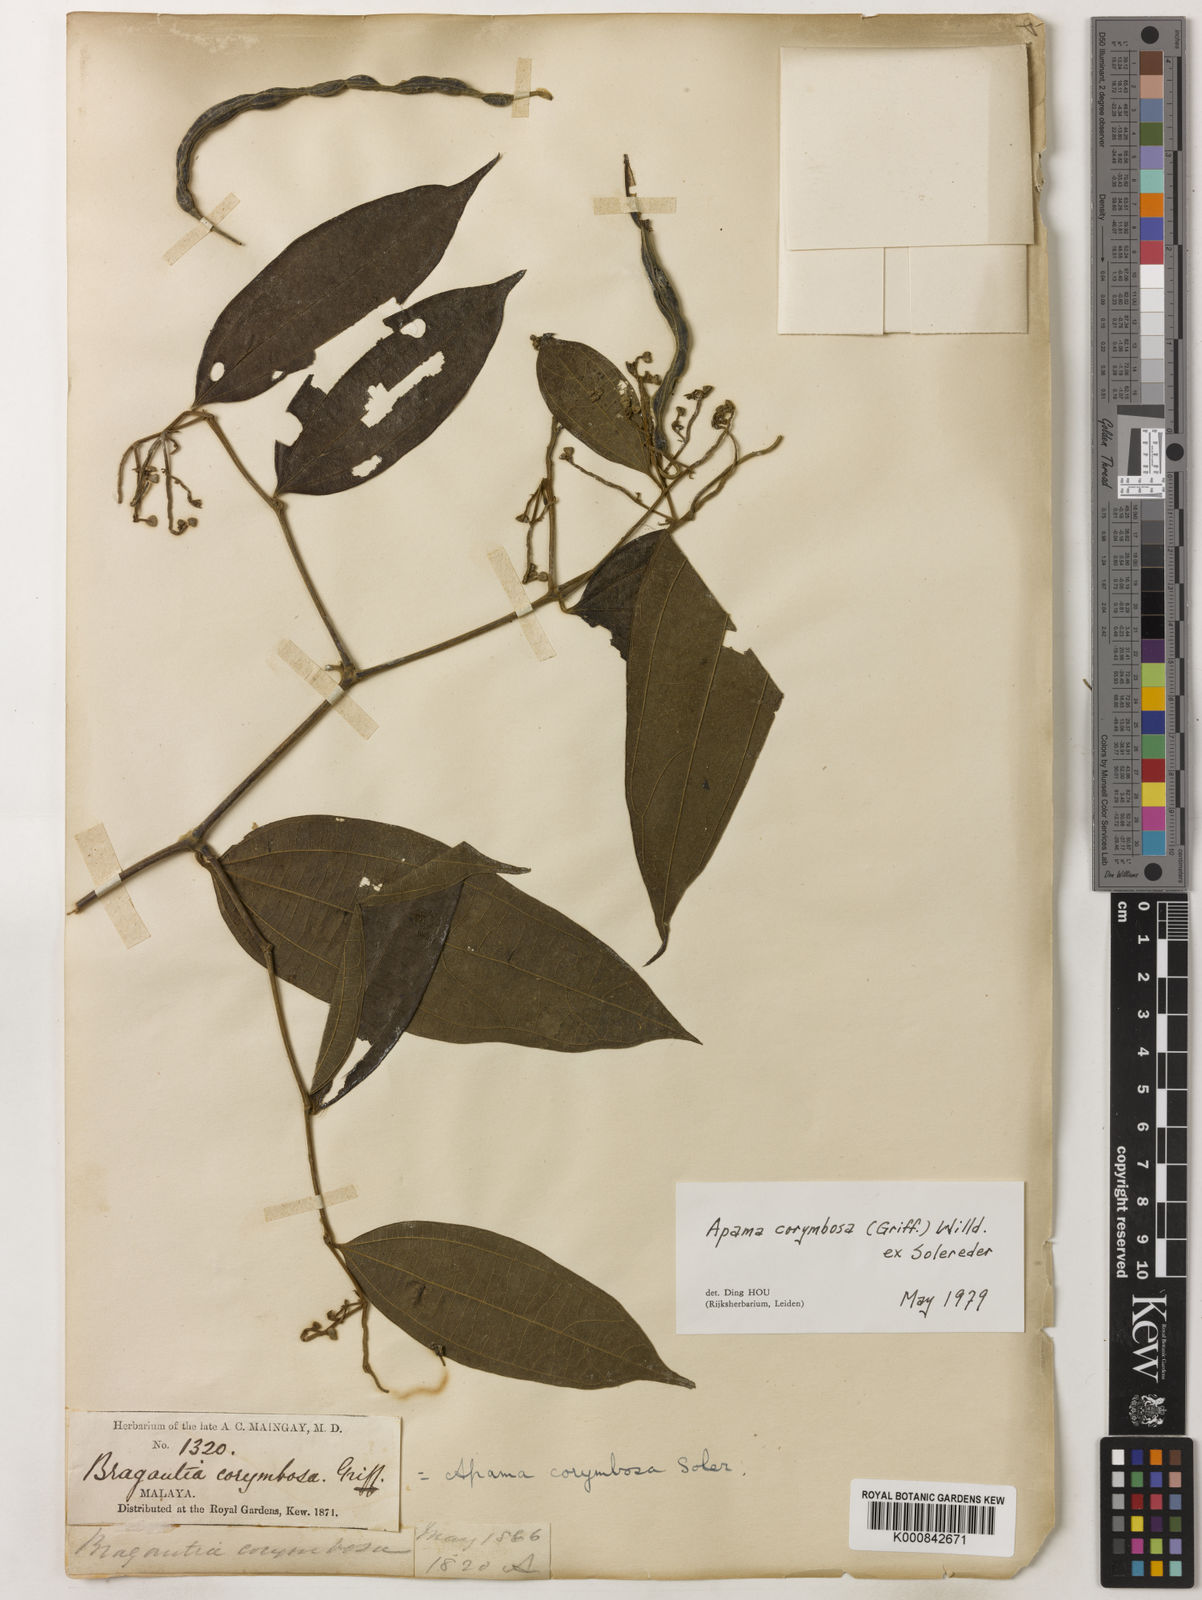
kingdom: Plantae
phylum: Tracheophyta
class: Magnoliopsida
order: Piperales
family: Aristolochiaceae
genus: Thottea
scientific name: Thottea piperiformis
